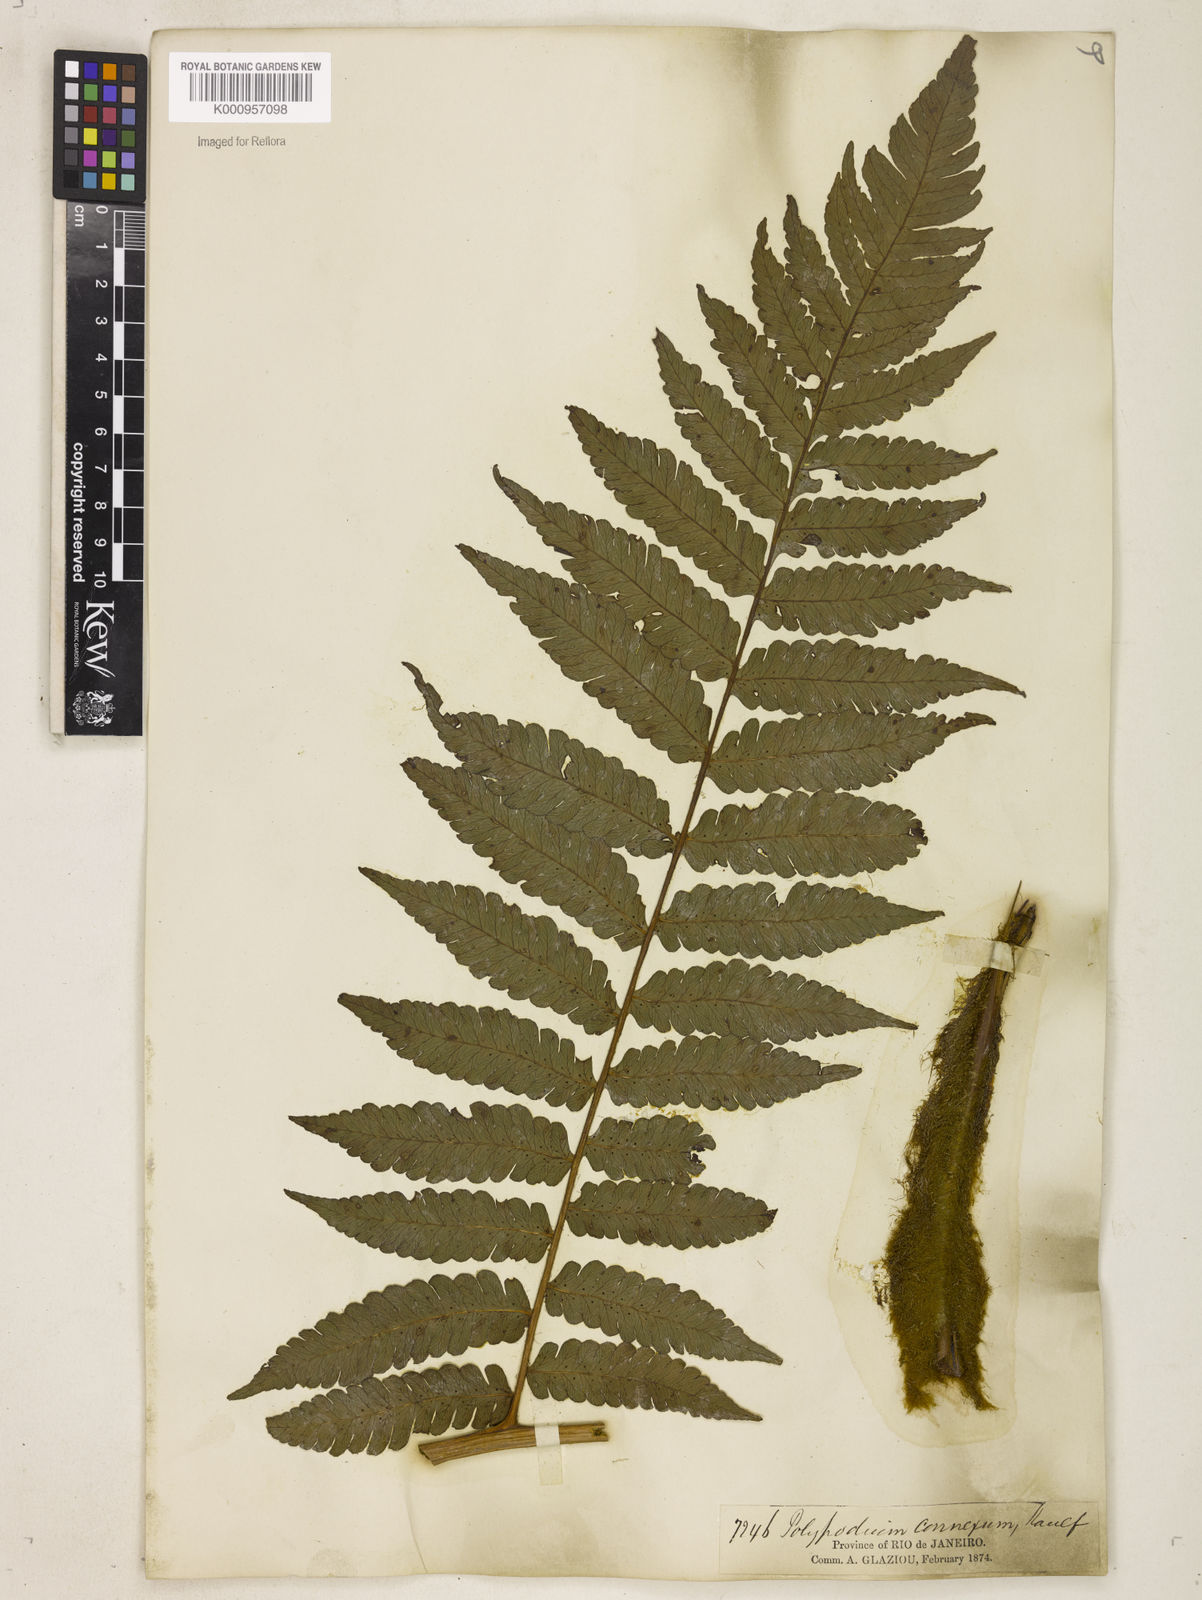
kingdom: Plantae
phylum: Tracheophyta
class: Polypodiopsida
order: Polypodiales
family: Dryopteridaceae
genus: Megalastrum
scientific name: Megalastrum connexum
